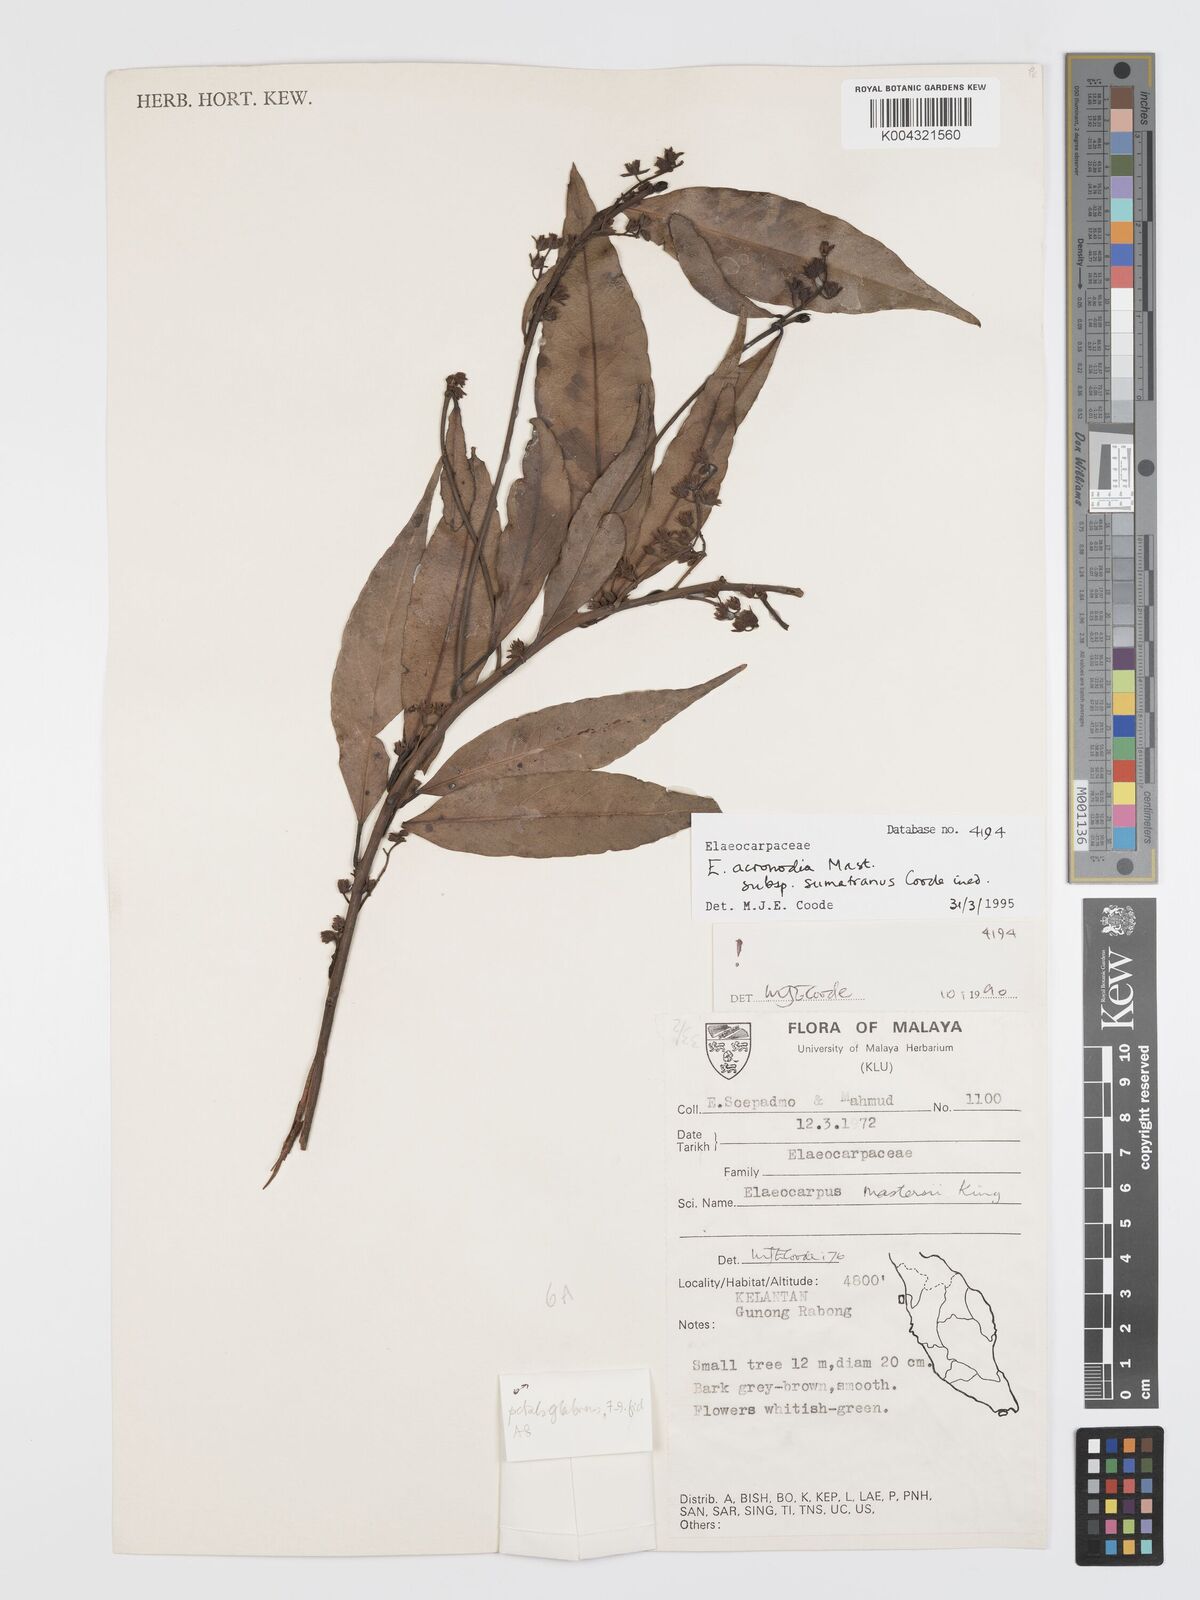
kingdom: Plantae
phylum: Tracheophyta
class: Magnoliopsida
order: Oxalidales
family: Elaeocarpaceae
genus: Elaeocarpus
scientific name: Elaeocarpus acronodia
